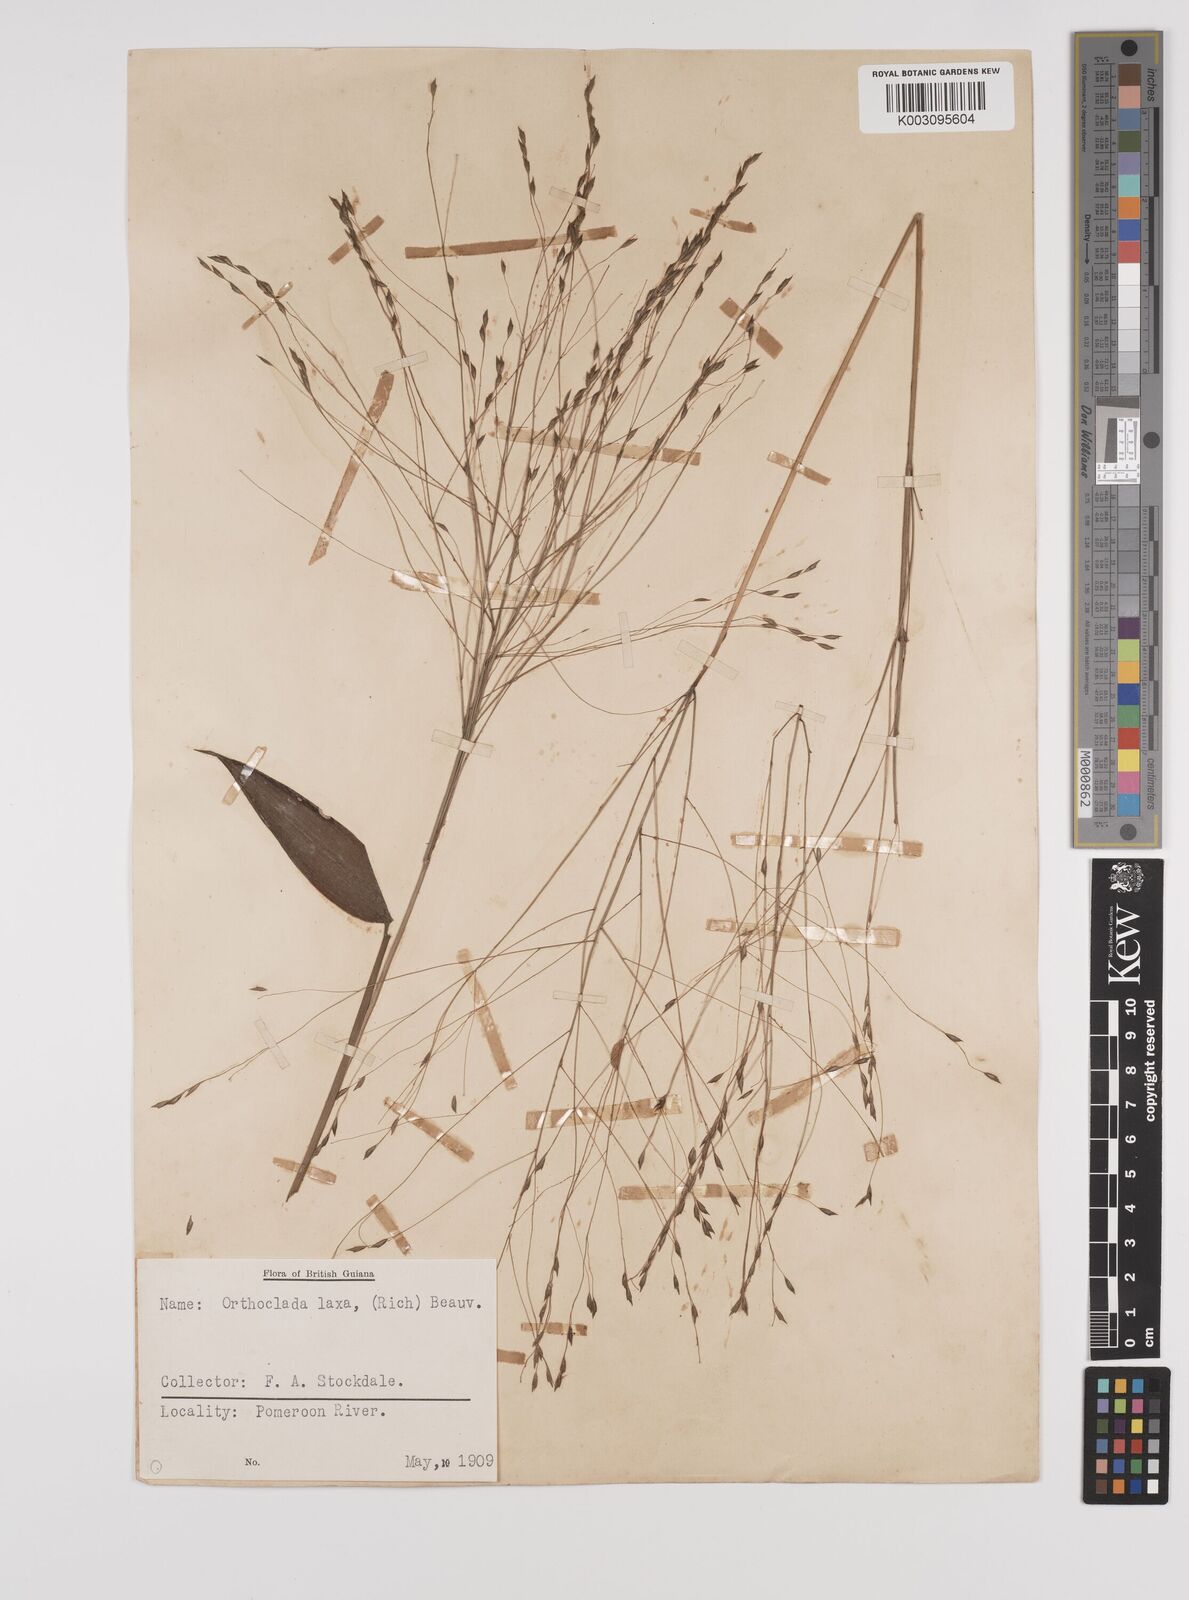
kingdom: Plantae
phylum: Tracheophyta
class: Liliopsida
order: Poales
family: Poaceae
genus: Orthoclada
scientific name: Orthoclada laxa
